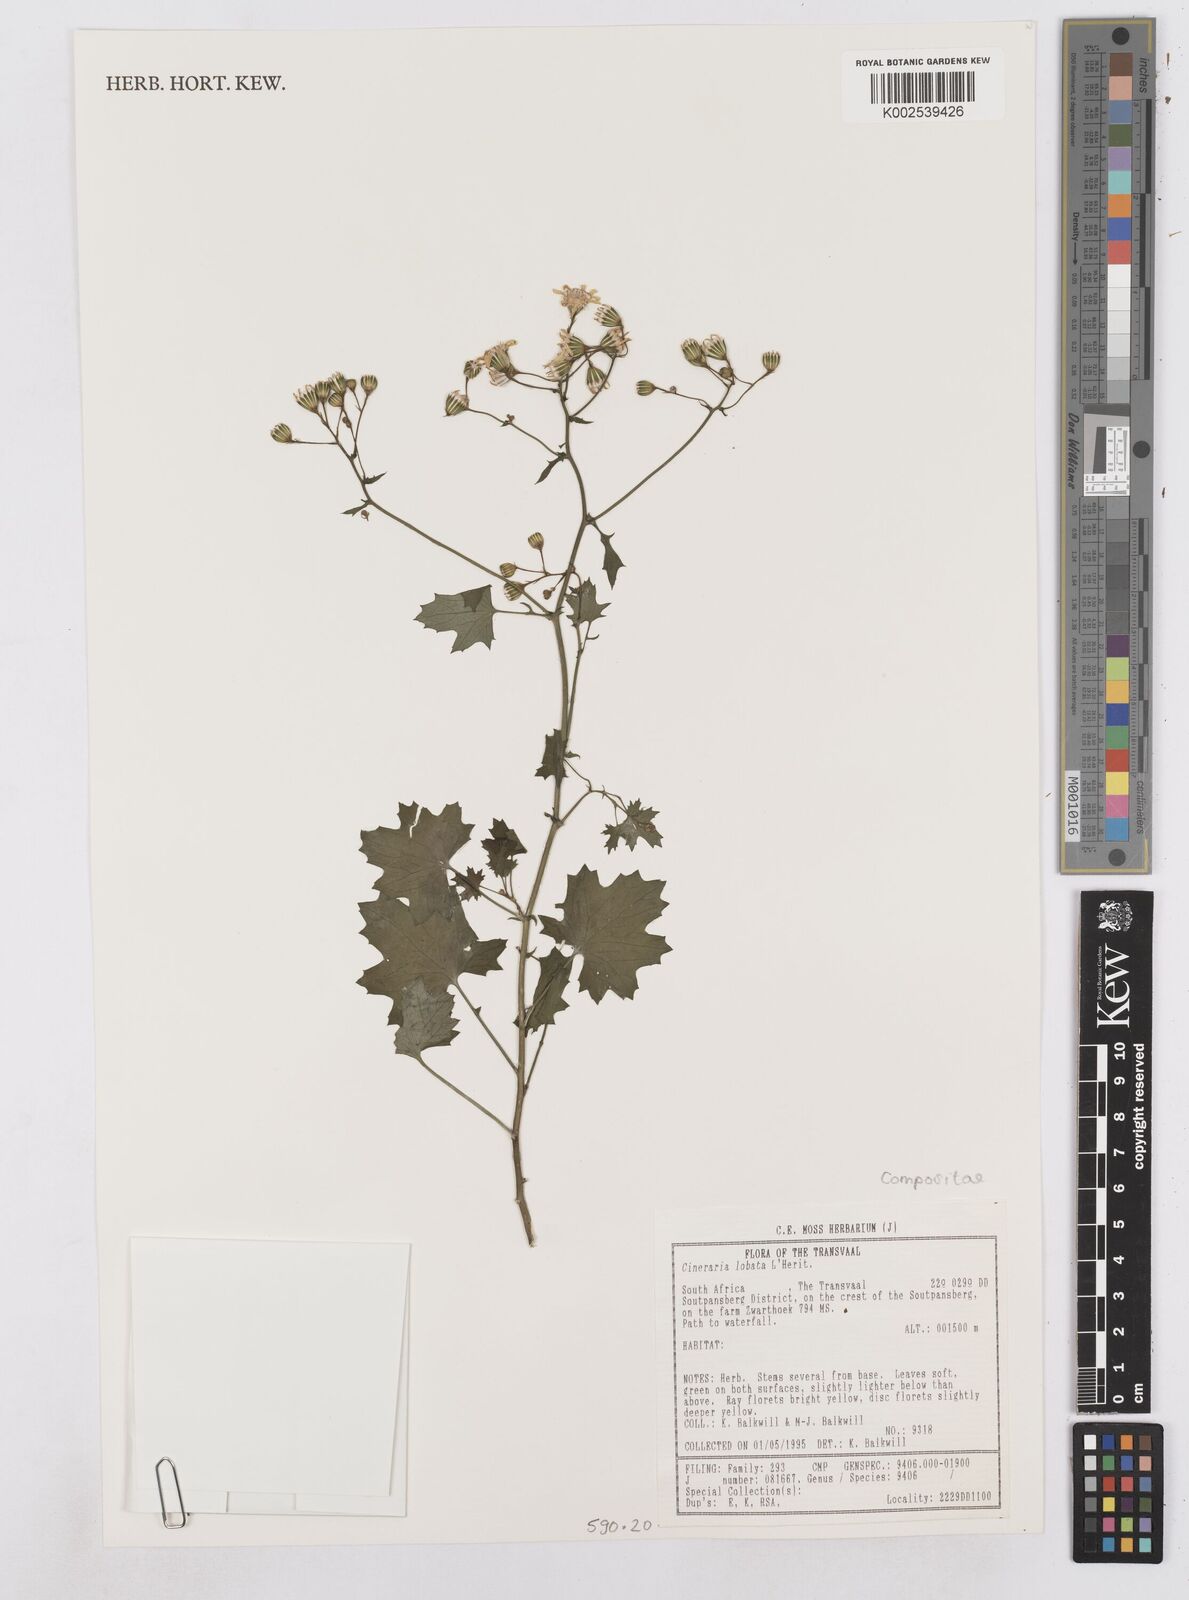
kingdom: Plantae
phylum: Tracheophyta
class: Magnoliopsida
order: Asterales
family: Asteraceae
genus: Cineraria
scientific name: Cineraria
